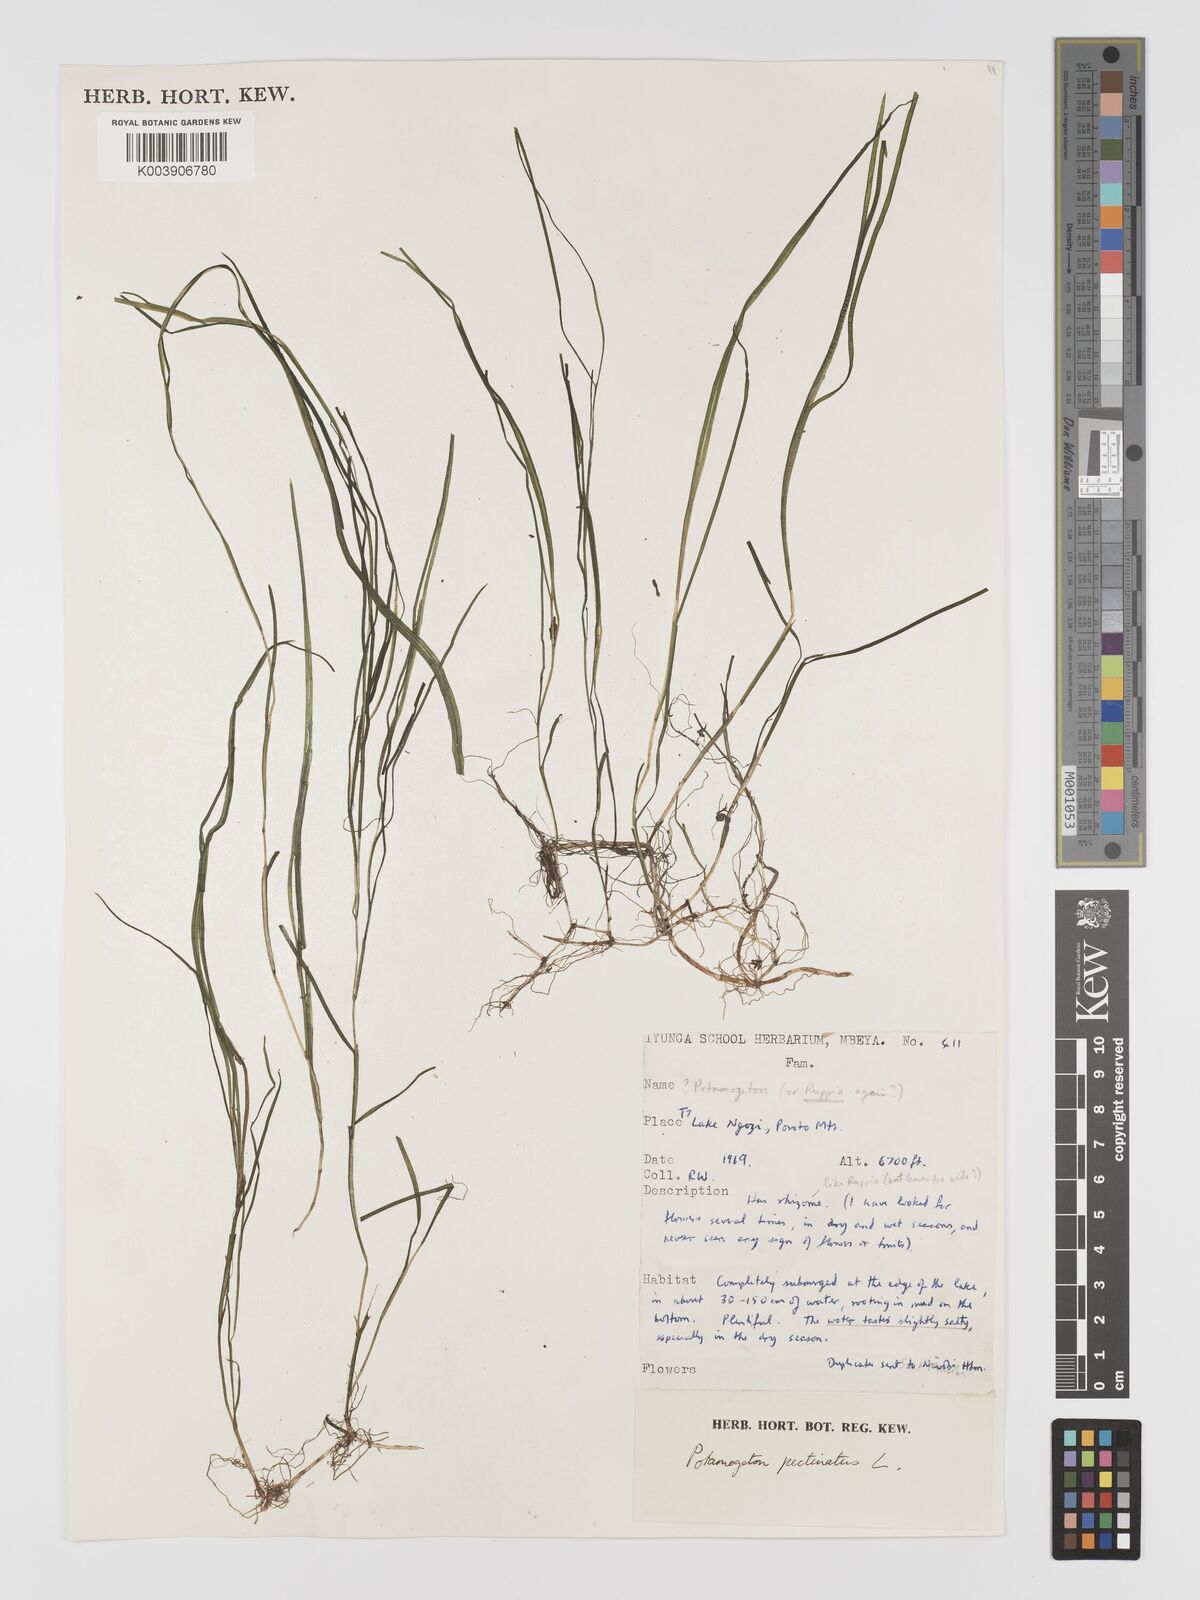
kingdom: Plantae
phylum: Tracheophyta
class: Liliopsida
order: Alismatales
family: Potamogetonaceae
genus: Stuckenia
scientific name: Stuckenia pectinata
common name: Sago pondweed
